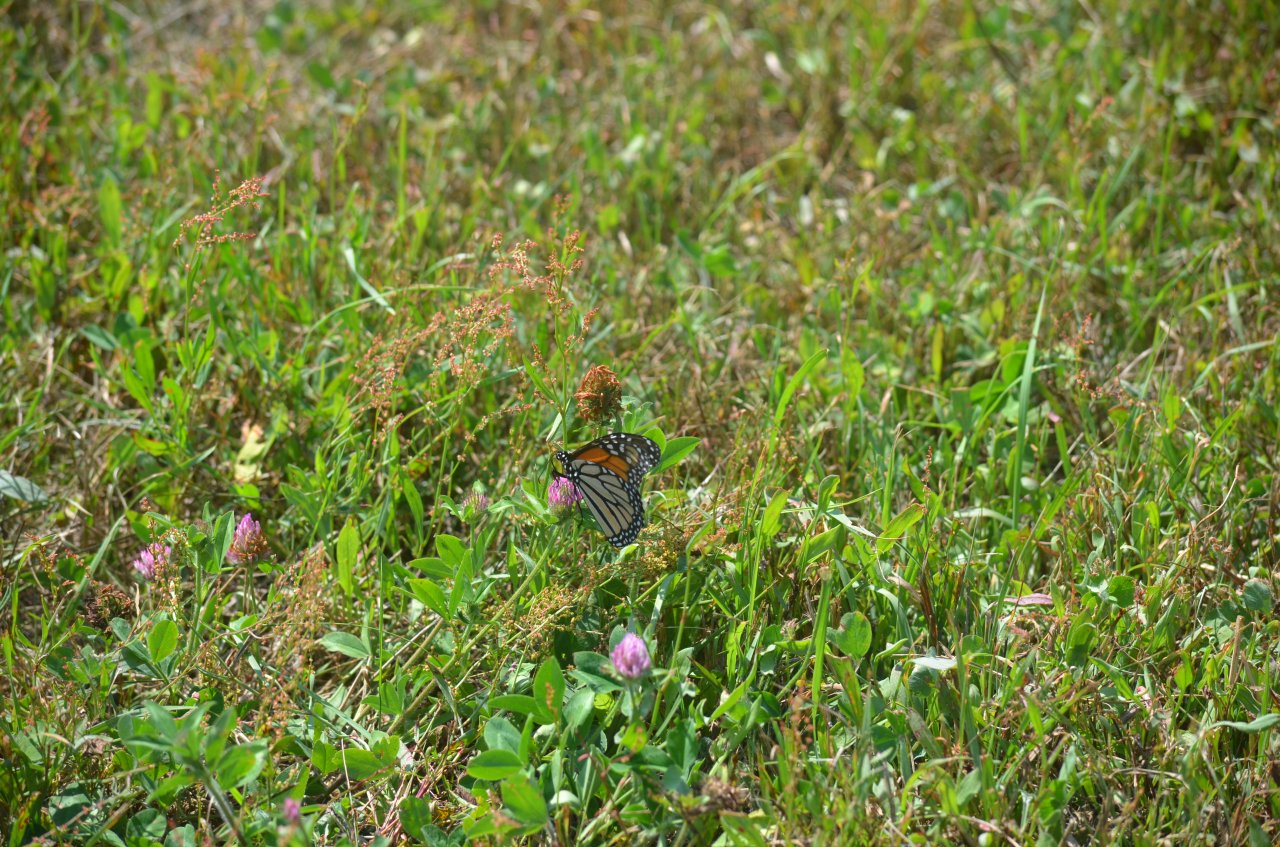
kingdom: Animalia
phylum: Arthropoda
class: Insecta
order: Lepidoptera
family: Nymphalidae
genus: Danaus
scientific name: Danaus plexippus
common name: Monarch
